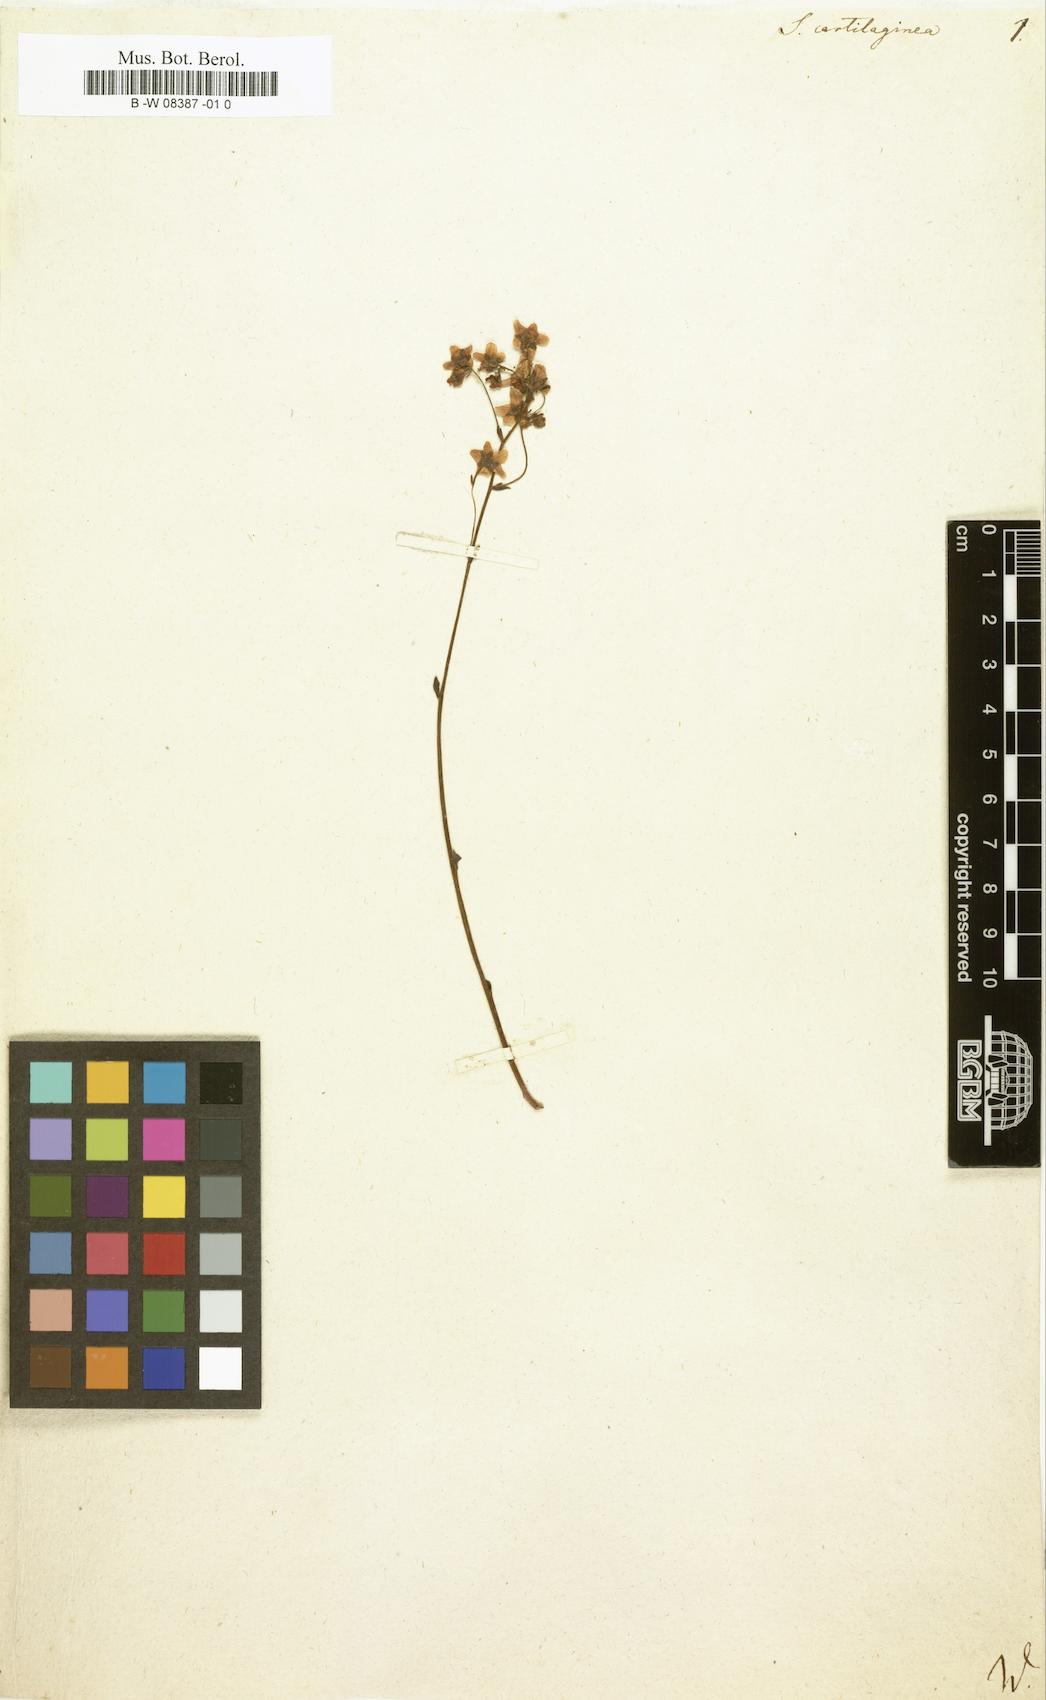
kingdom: Plantae
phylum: Tracheophyta
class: Magnoliopsida
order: Saxifragales
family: Saxifragaceae
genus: Saxifraga
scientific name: Saxifraga paniculata
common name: Livelong saxifrage
